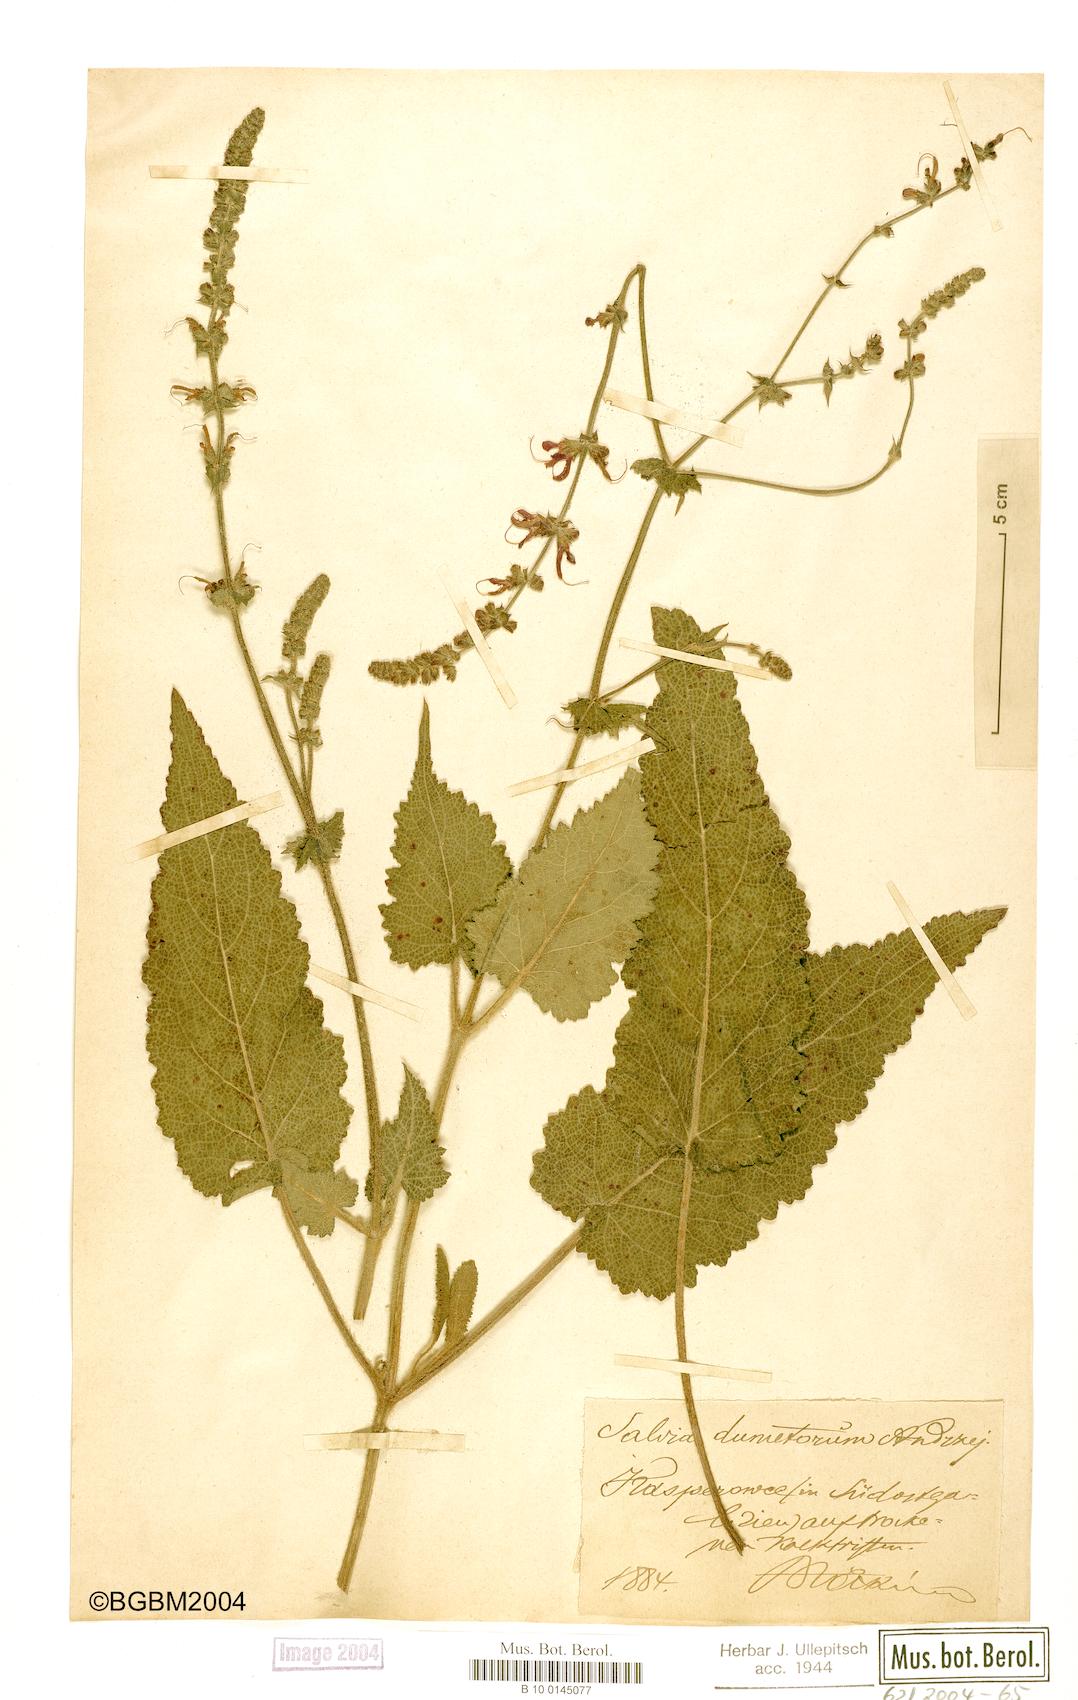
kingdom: Plantae
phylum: Tracheophyta
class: Magnoliopsida
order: Lamiales
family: Lamiaceae
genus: Salvia
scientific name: Salvia dumetorum
